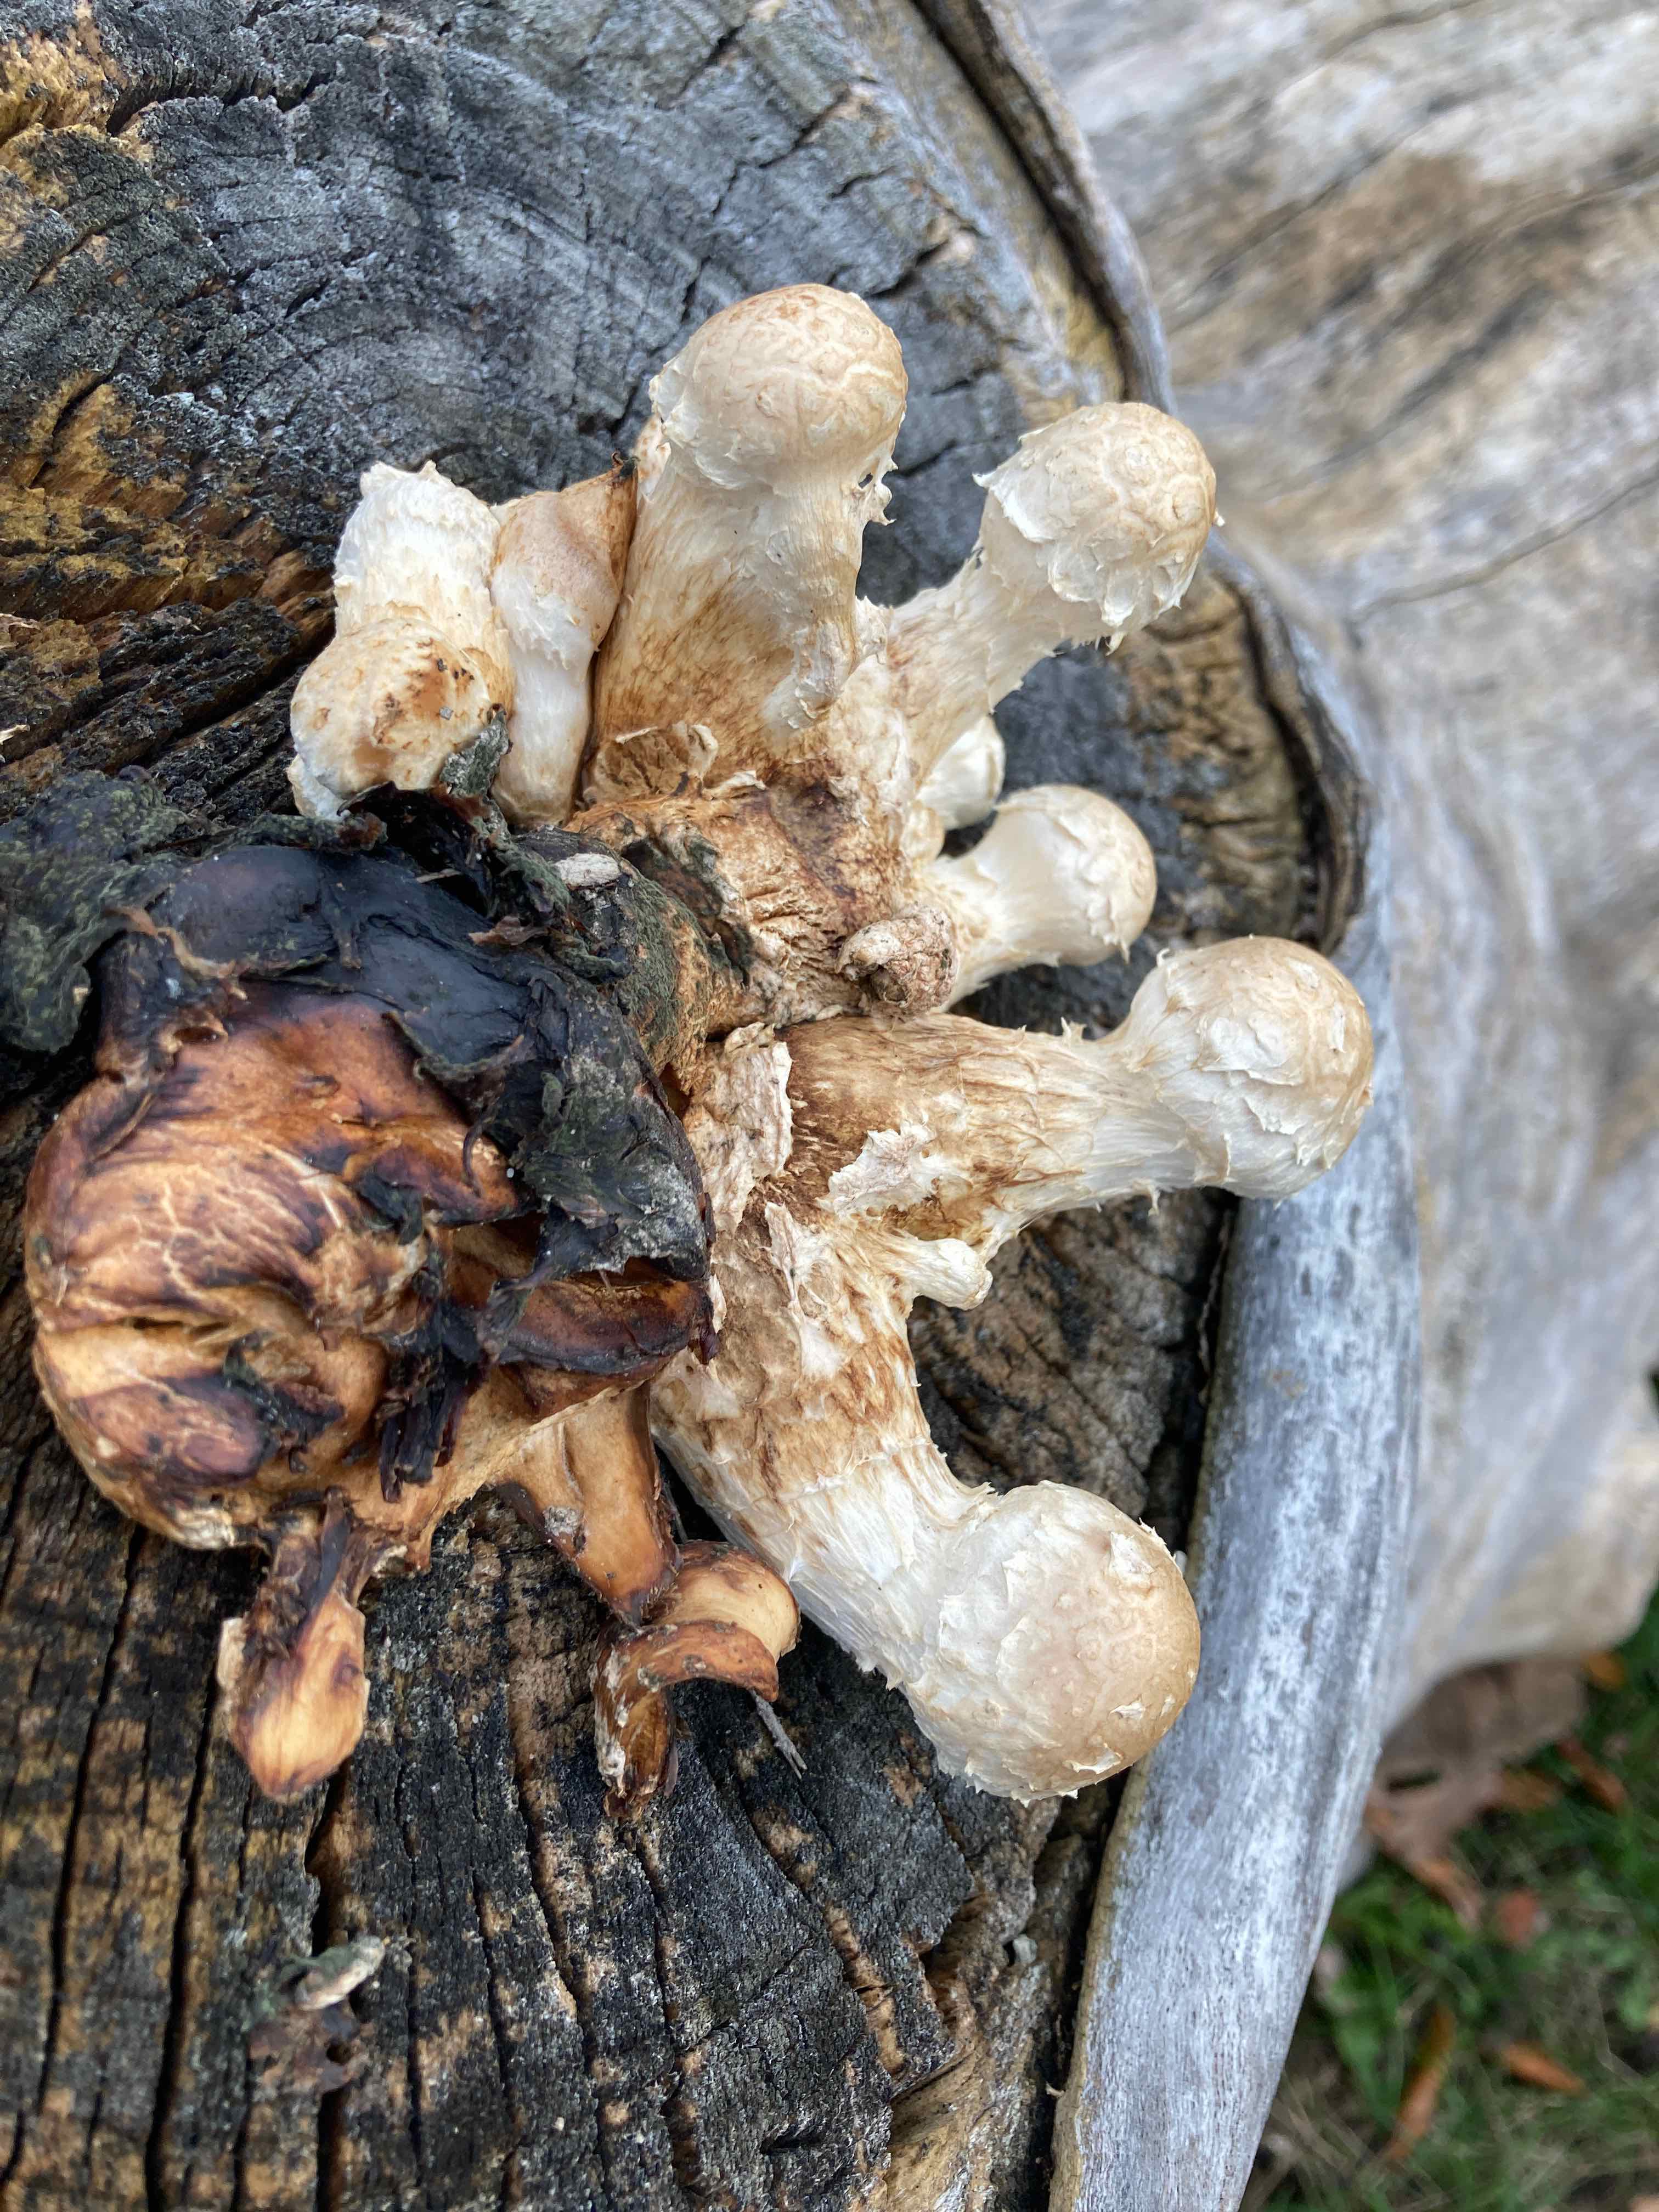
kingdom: Fungi
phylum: Basidiomycota
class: Agaricomycetes
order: Agaricales
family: Strophariaceae
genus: Pholiota
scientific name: Pholiota populnea
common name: poppel-kæmpeskælhat
